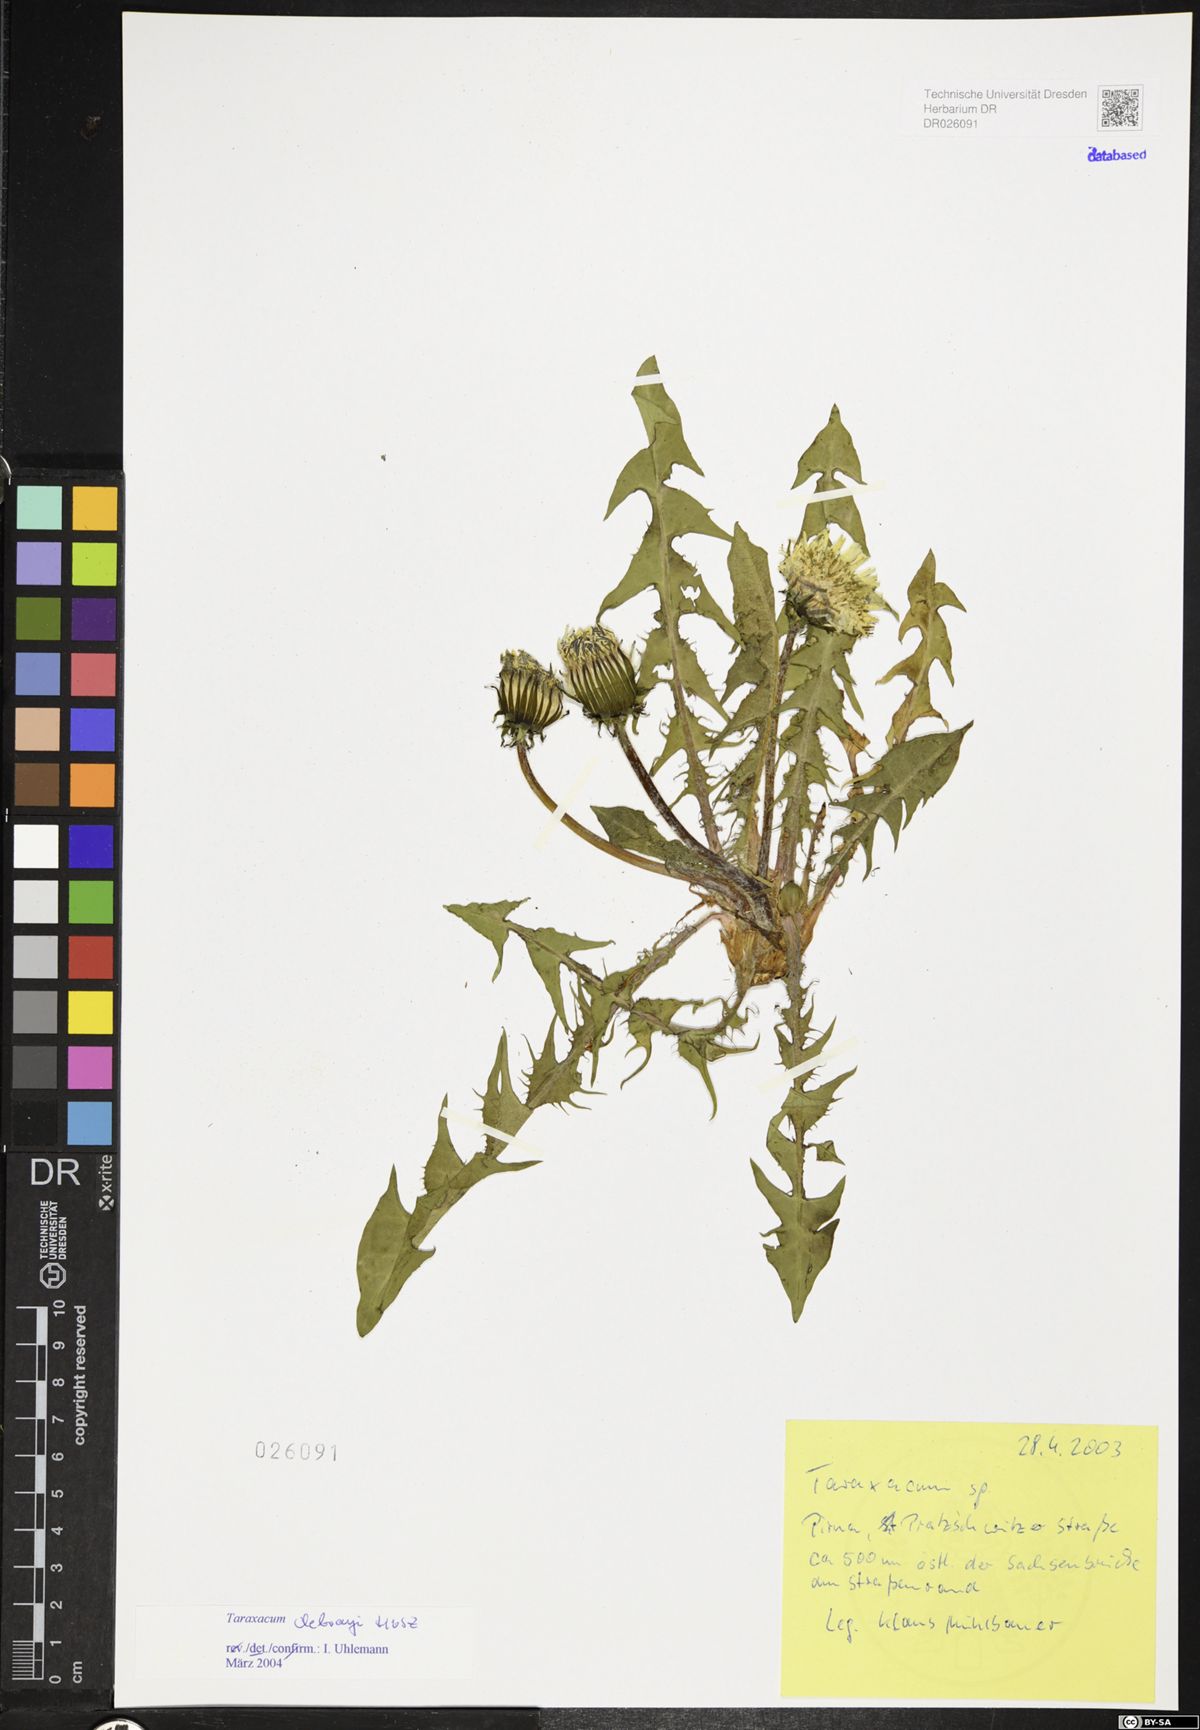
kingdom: Plantae
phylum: Tracheophyta
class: Magnoliopsida
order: Asterales
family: Asteraceae
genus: Taraxacum
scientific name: Taraxacum debrayi
